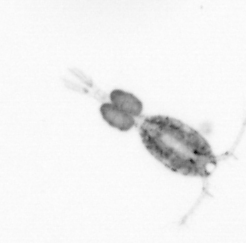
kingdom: Animalia
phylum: Arthropoda
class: Copepoda
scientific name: Copepoda
